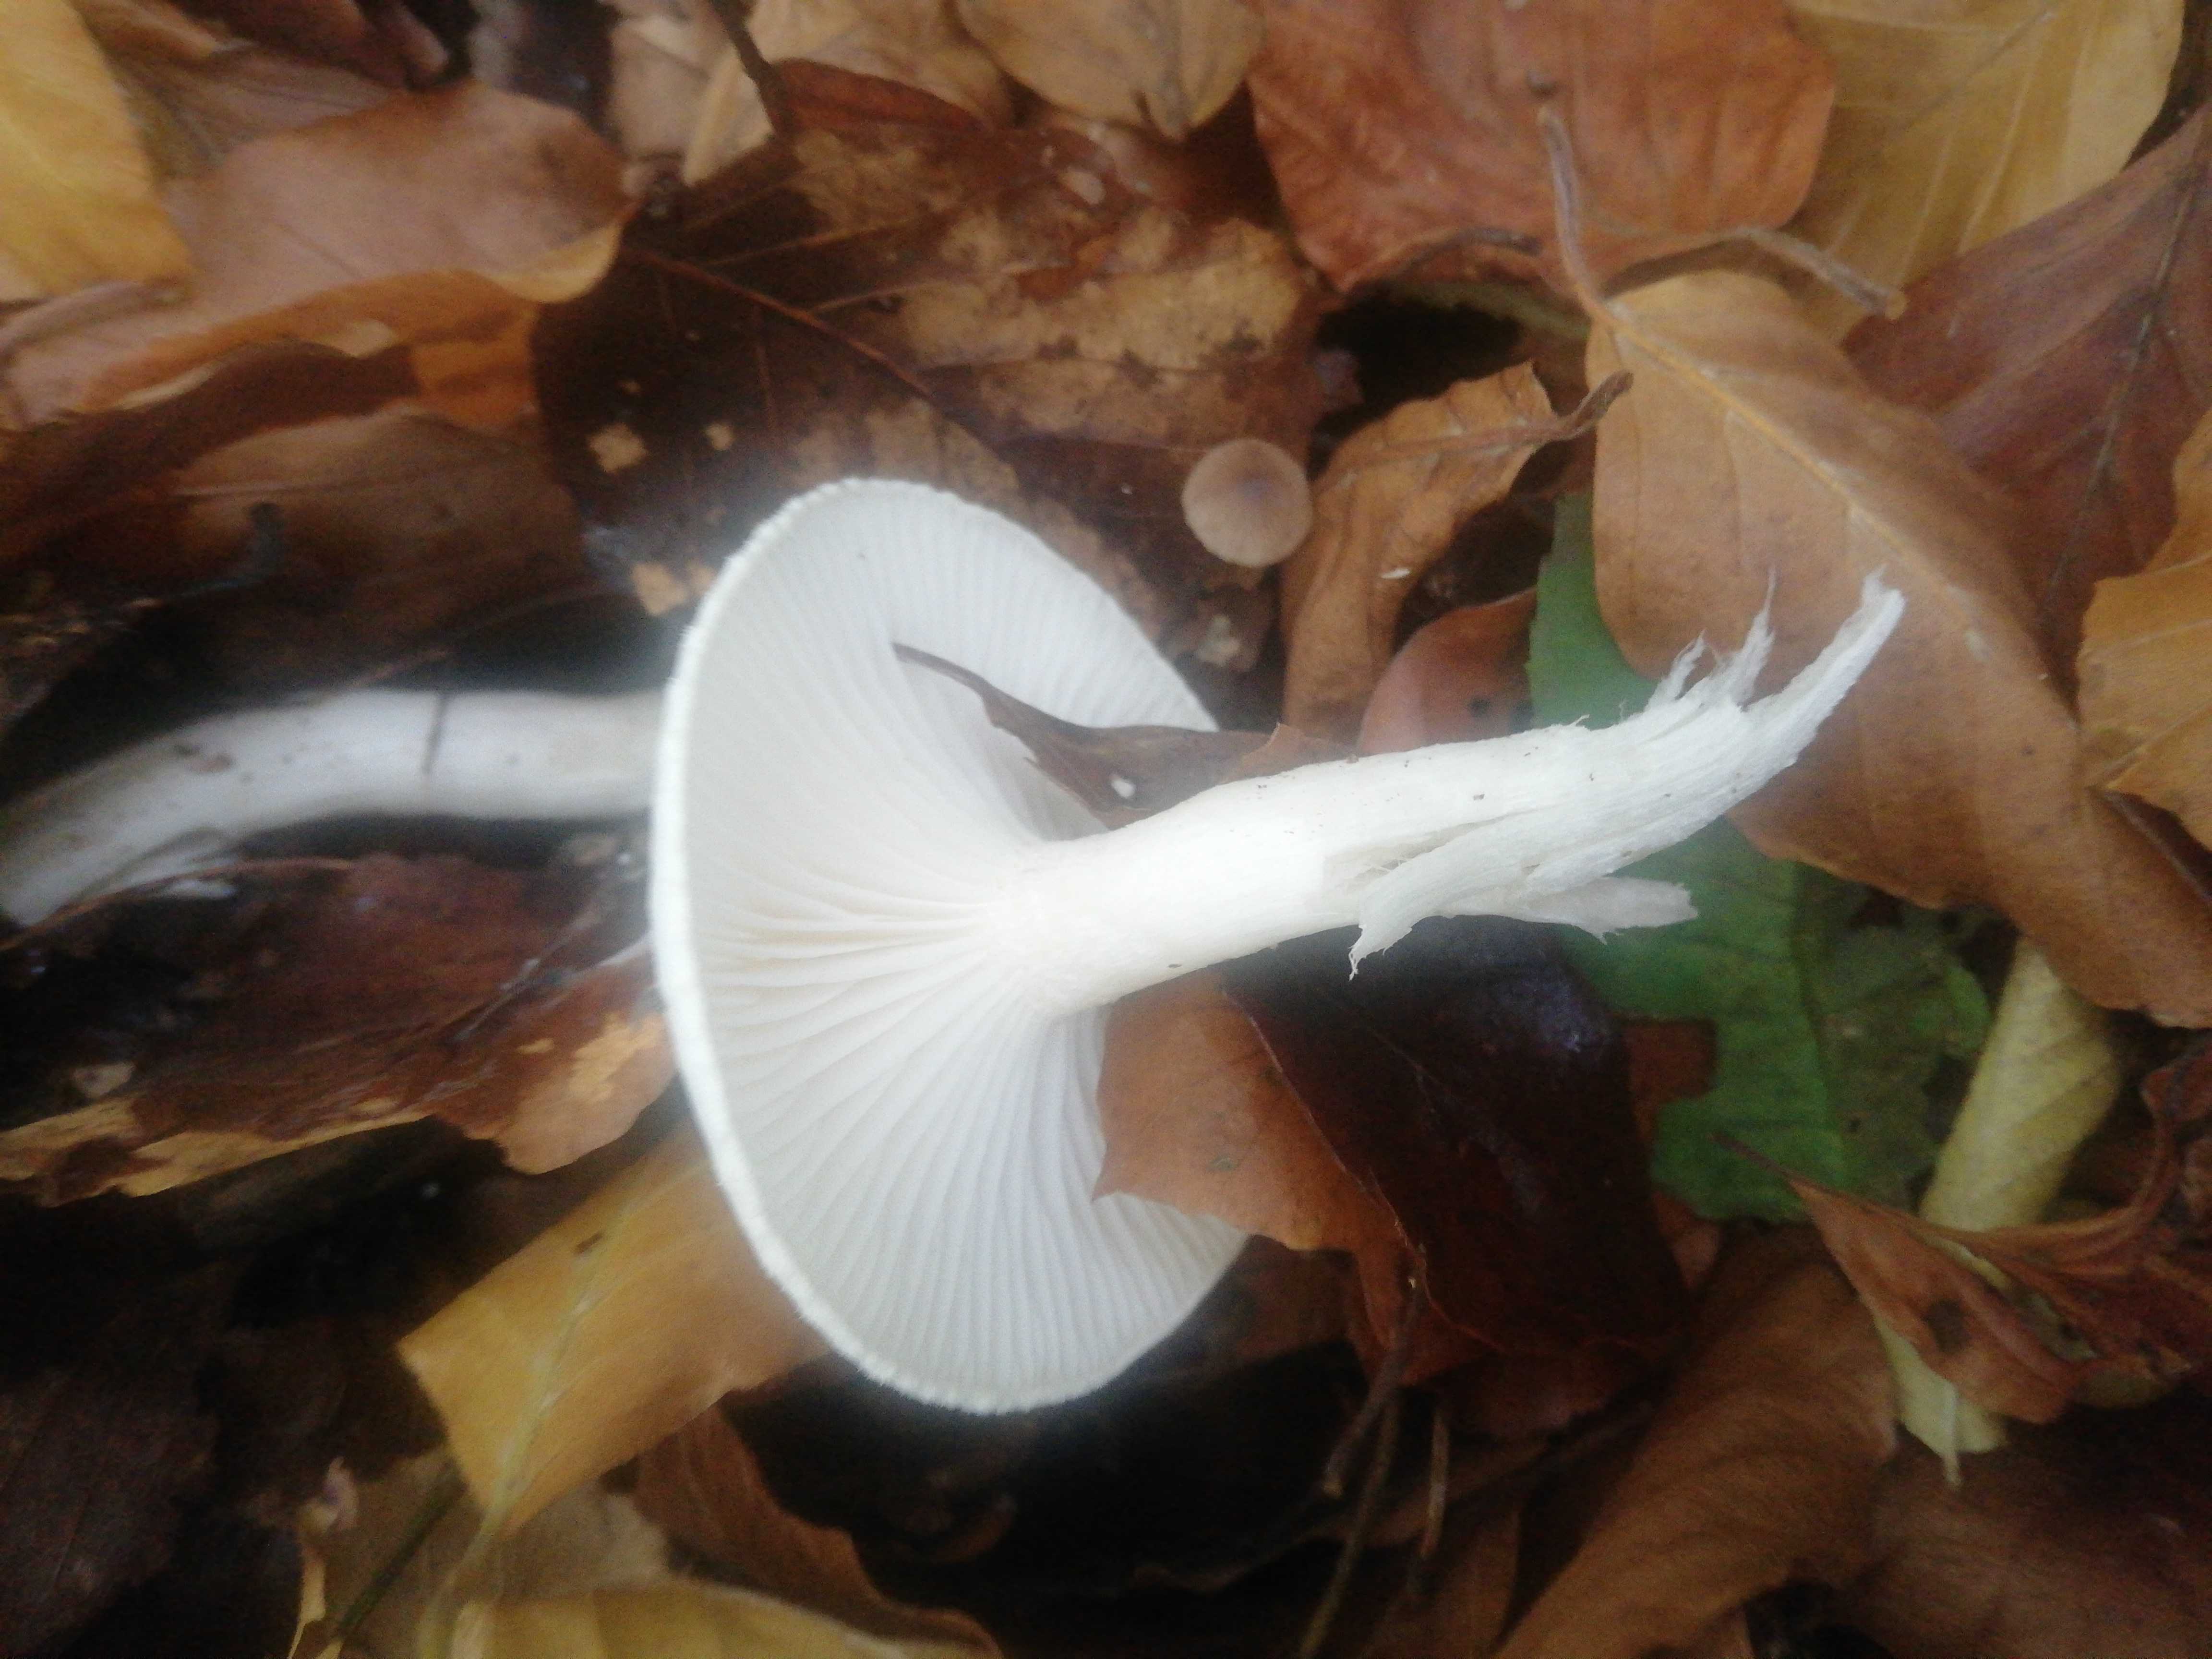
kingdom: Fungi
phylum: Basidiomycota
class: Agaricomycetes
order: Agaricales
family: Hygrophoraceae
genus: Hygrophorus
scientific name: Hygrophorus
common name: sneglehat
